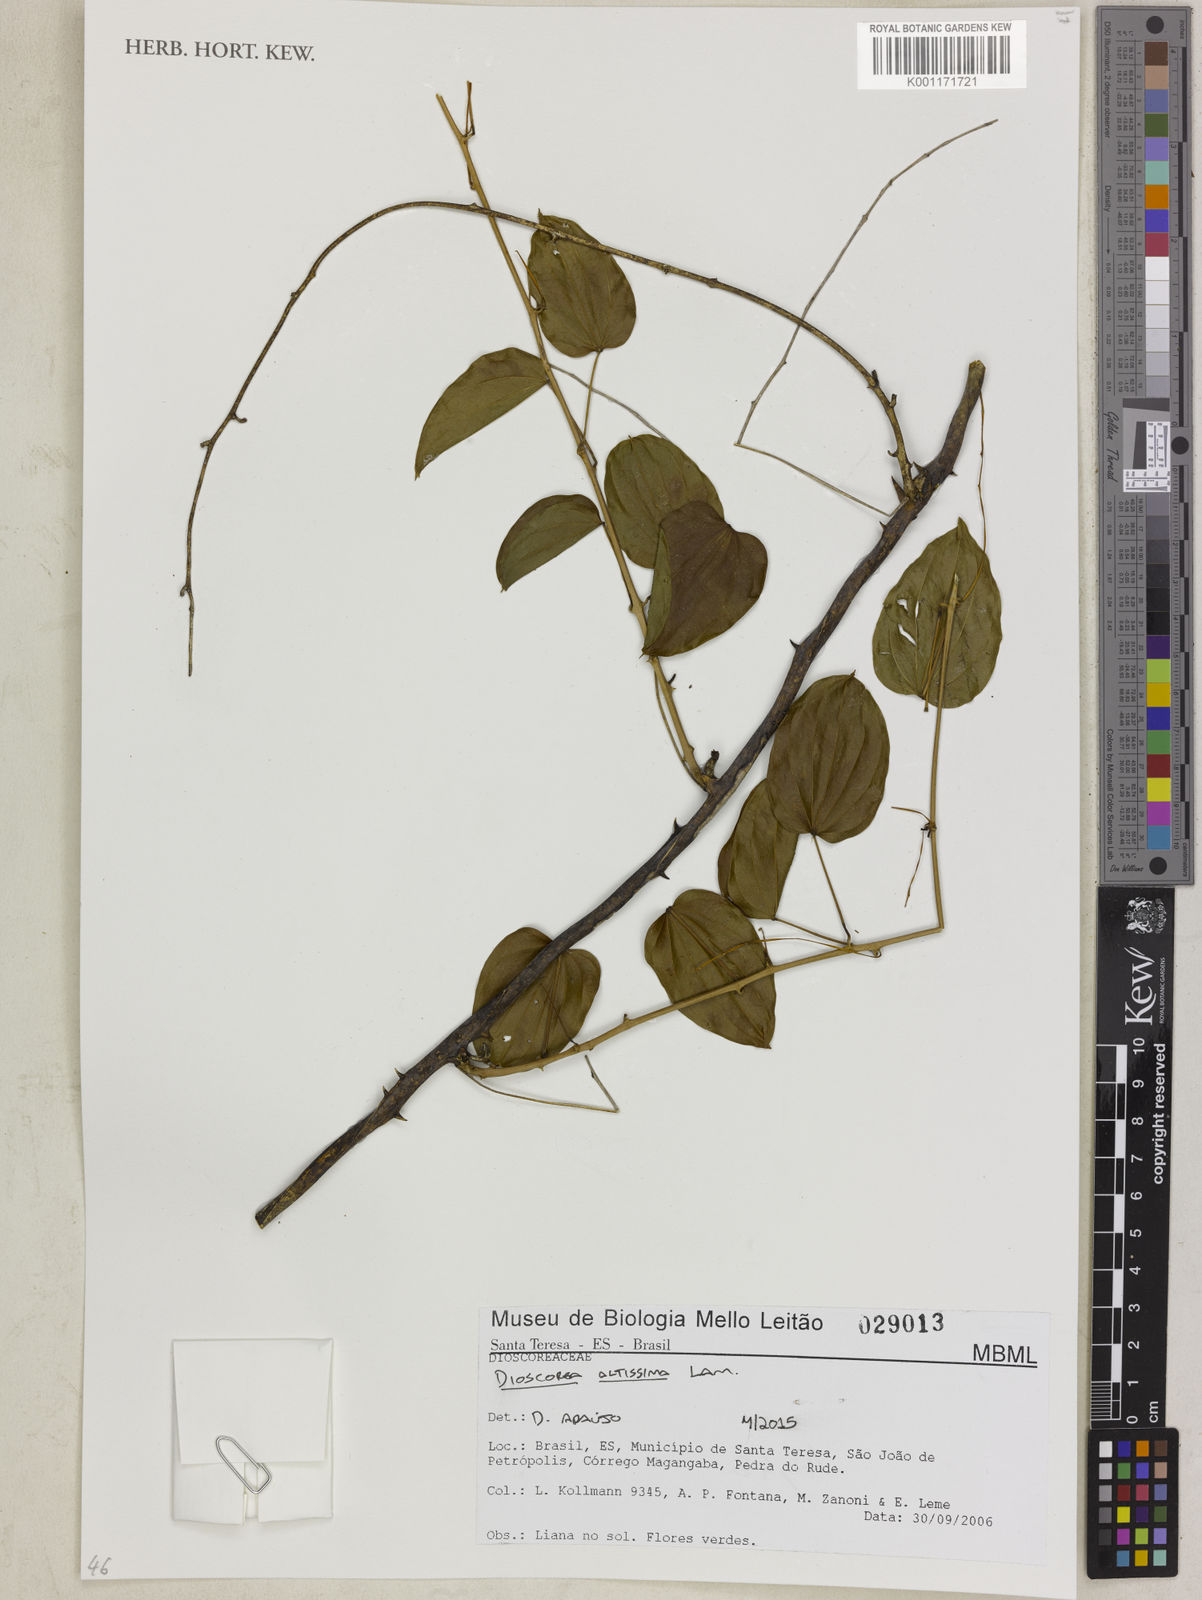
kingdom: Plantae
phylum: Tracheophyta
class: Liliopsida
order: Dioscoreales
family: Dioscoreaceae
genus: Dioscorea
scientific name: Dioscorea chondrocarpa
